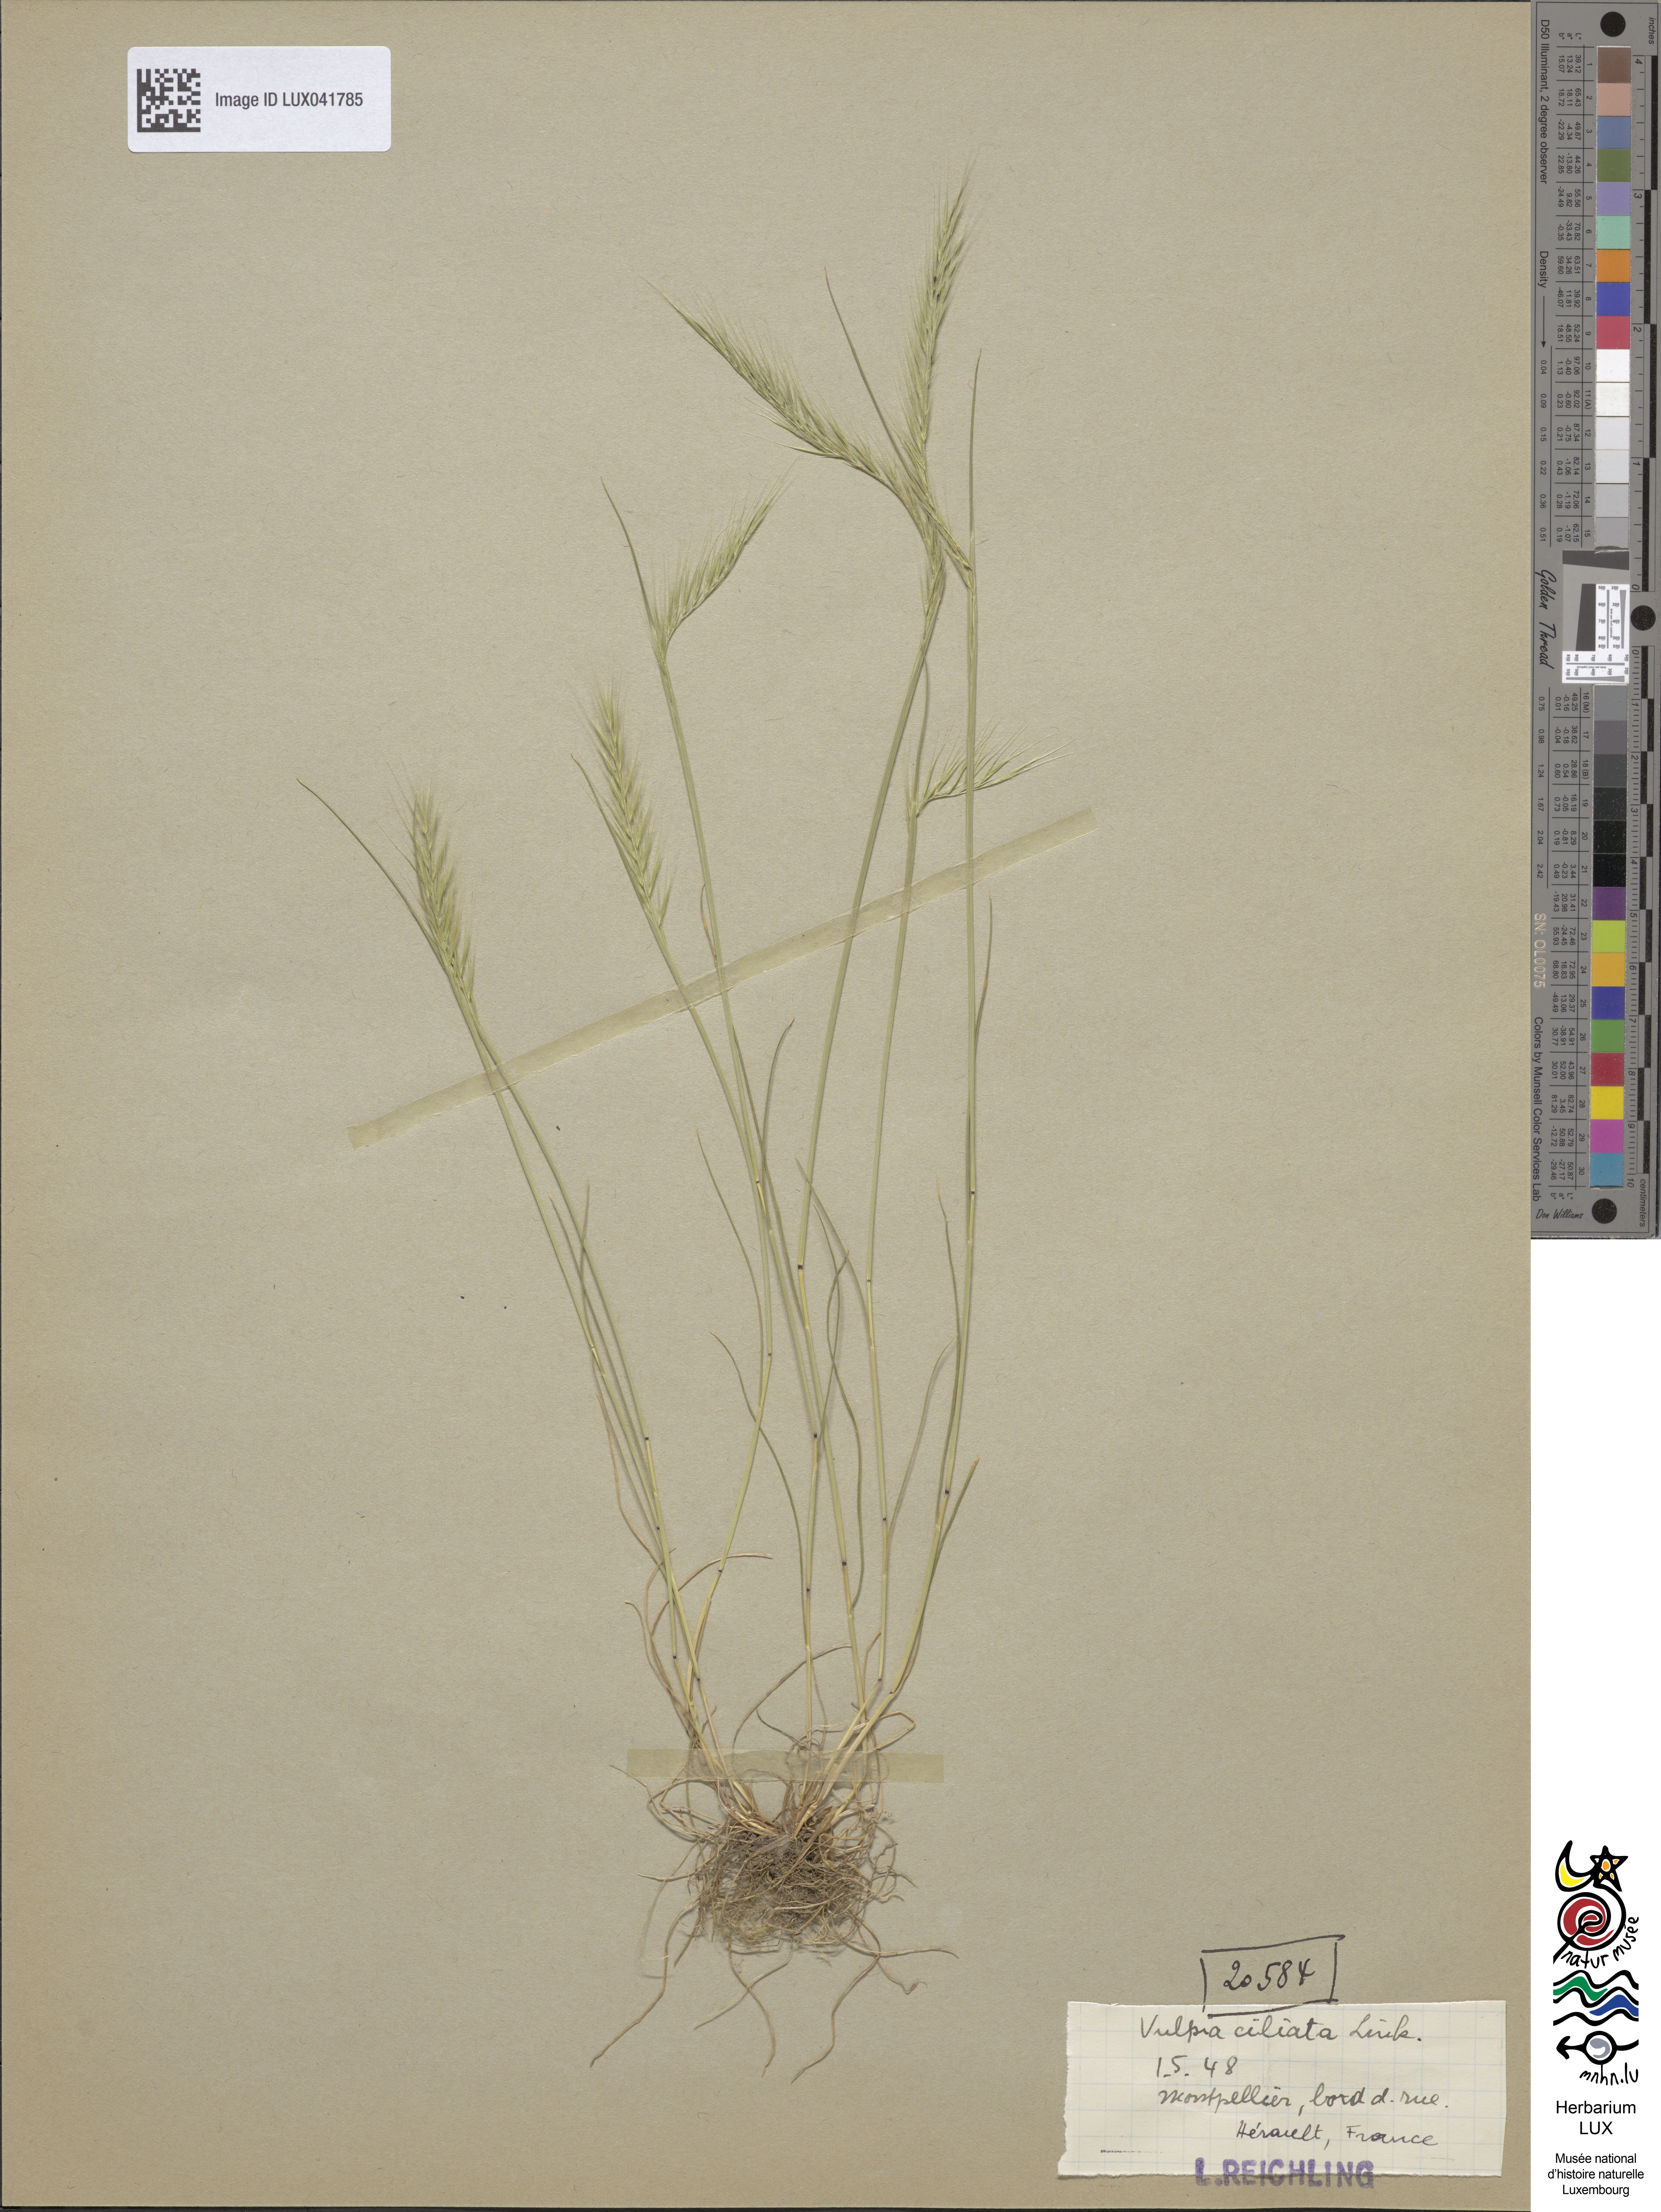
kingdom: Plantae
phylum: Tracheophyta
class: Liliopsida
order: Poales
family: Poaceae
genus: Festuca
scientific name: Festuca ambigua
